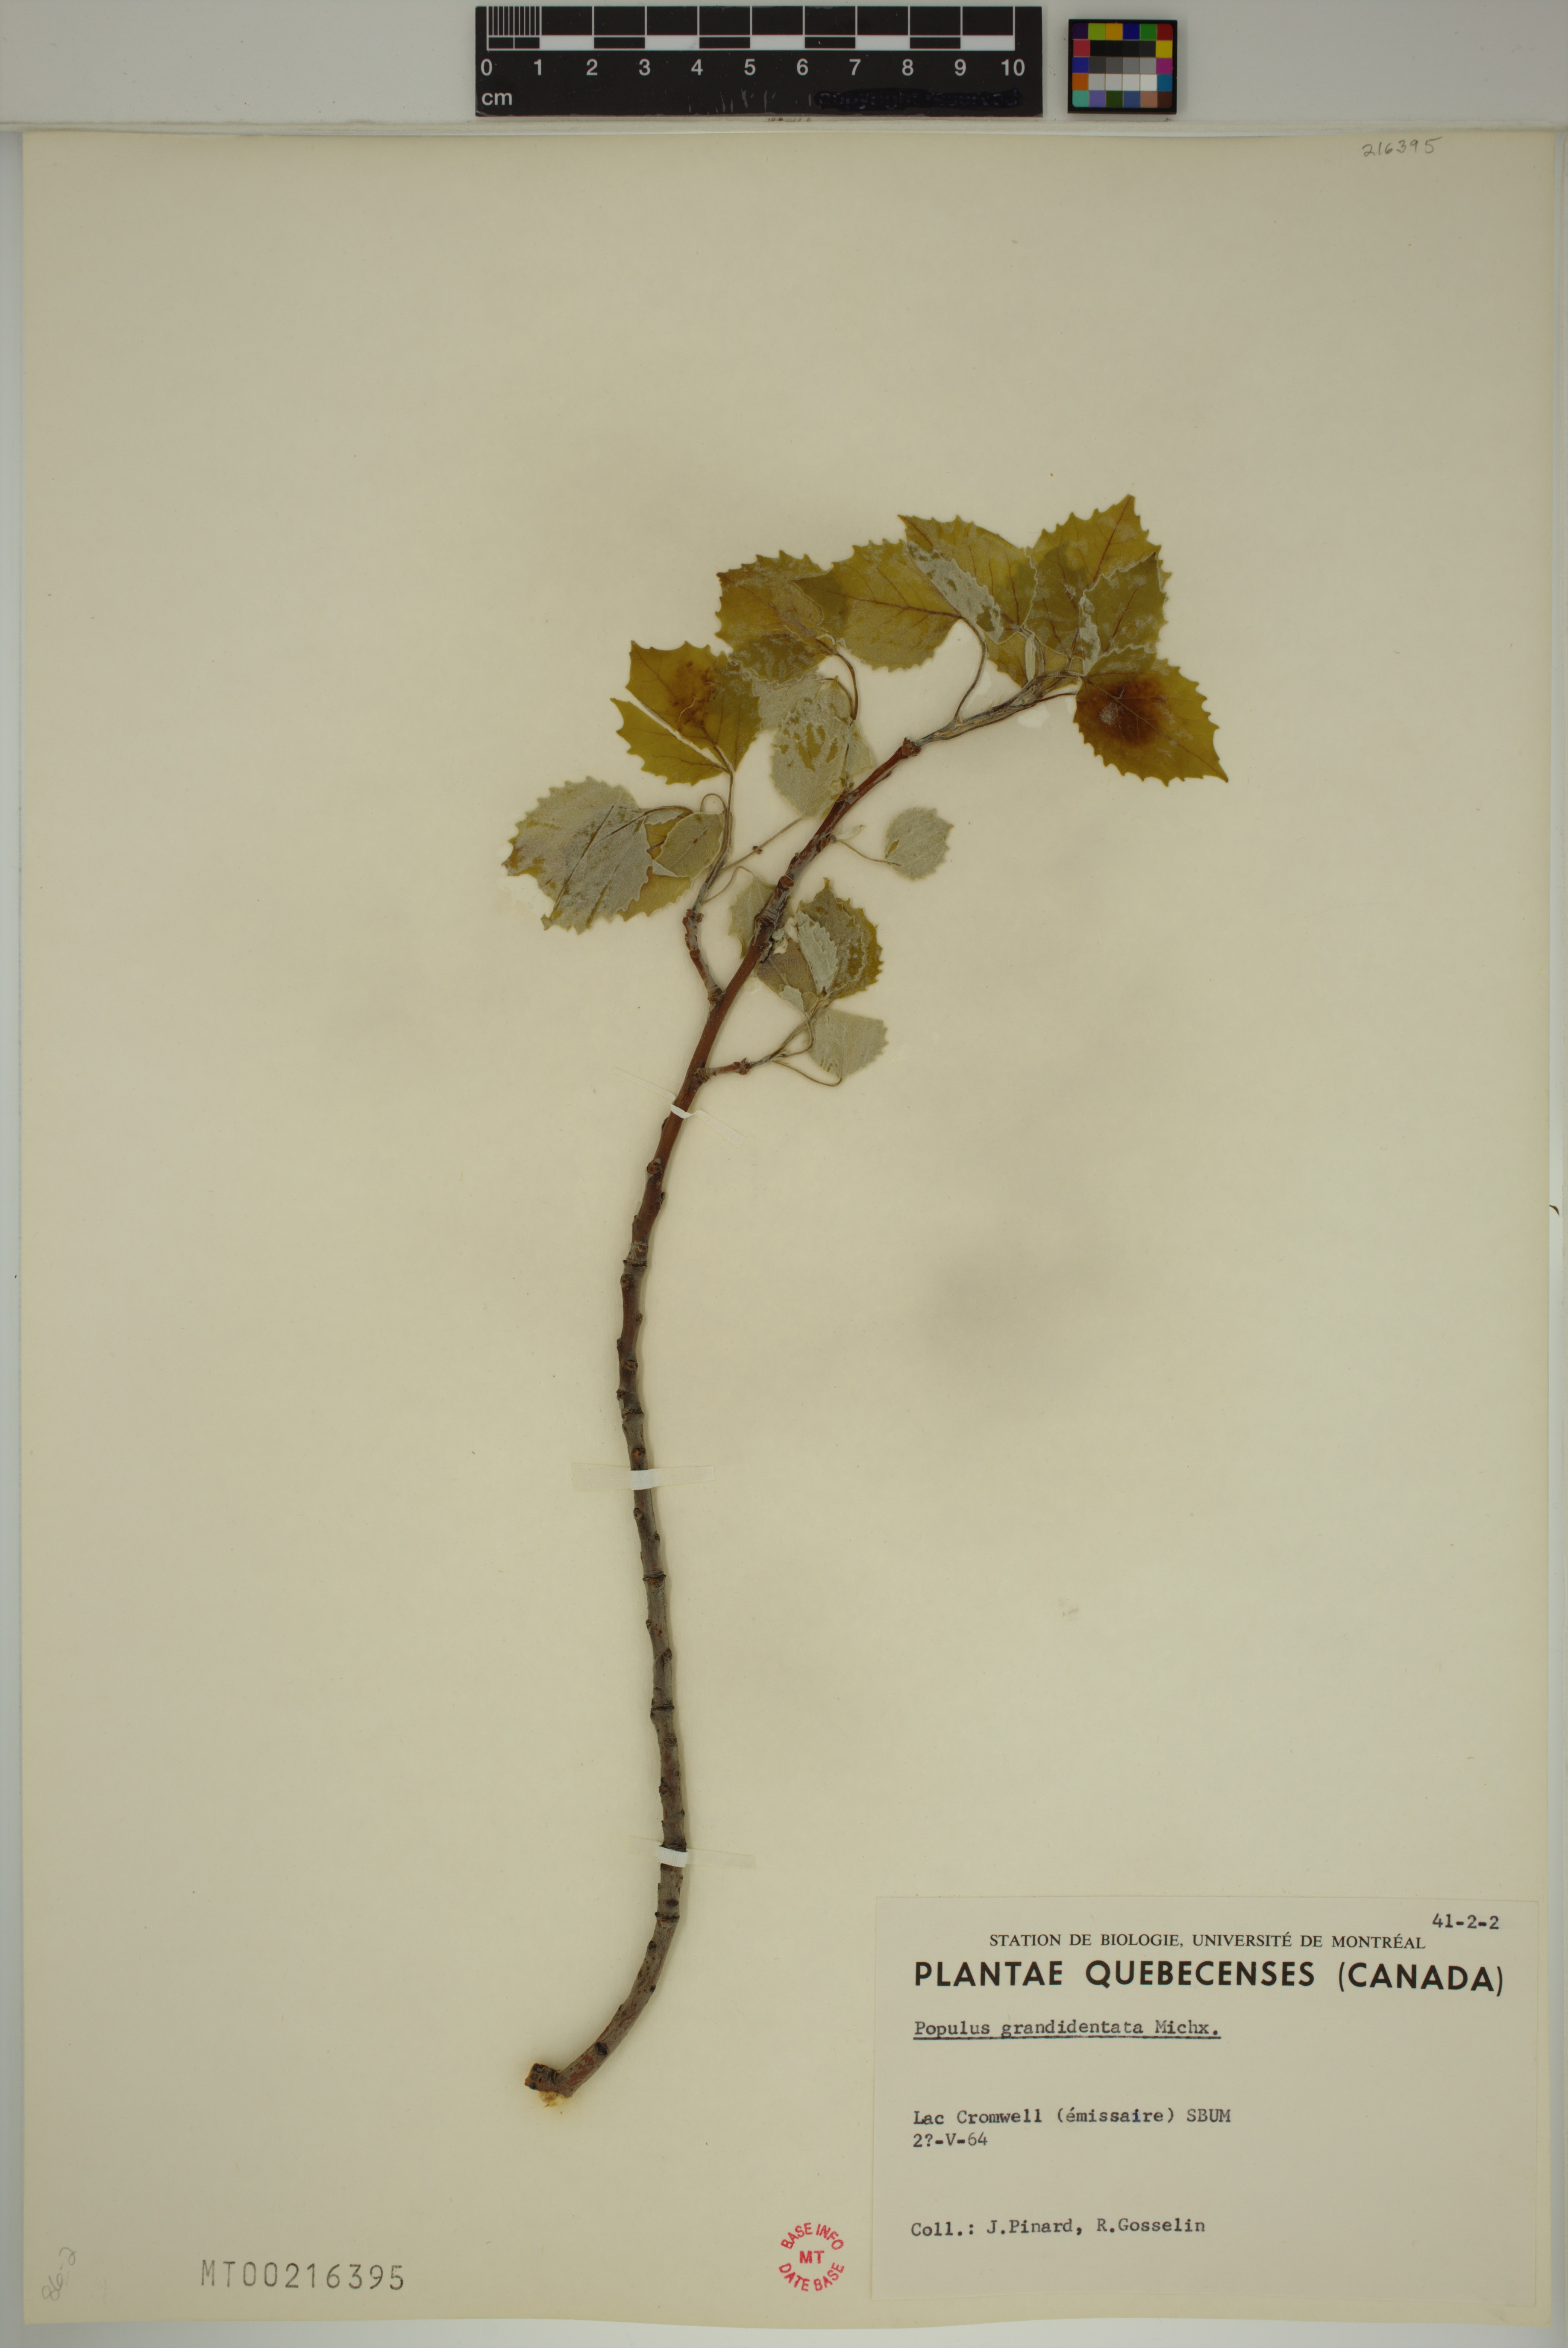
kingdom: Plantae
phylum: Tracheophyta
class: Magnoliopsida
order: Malpighiales
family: Salicaceae
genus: Populus
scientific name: Populus grandidentata
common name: Bigtooth aspen
